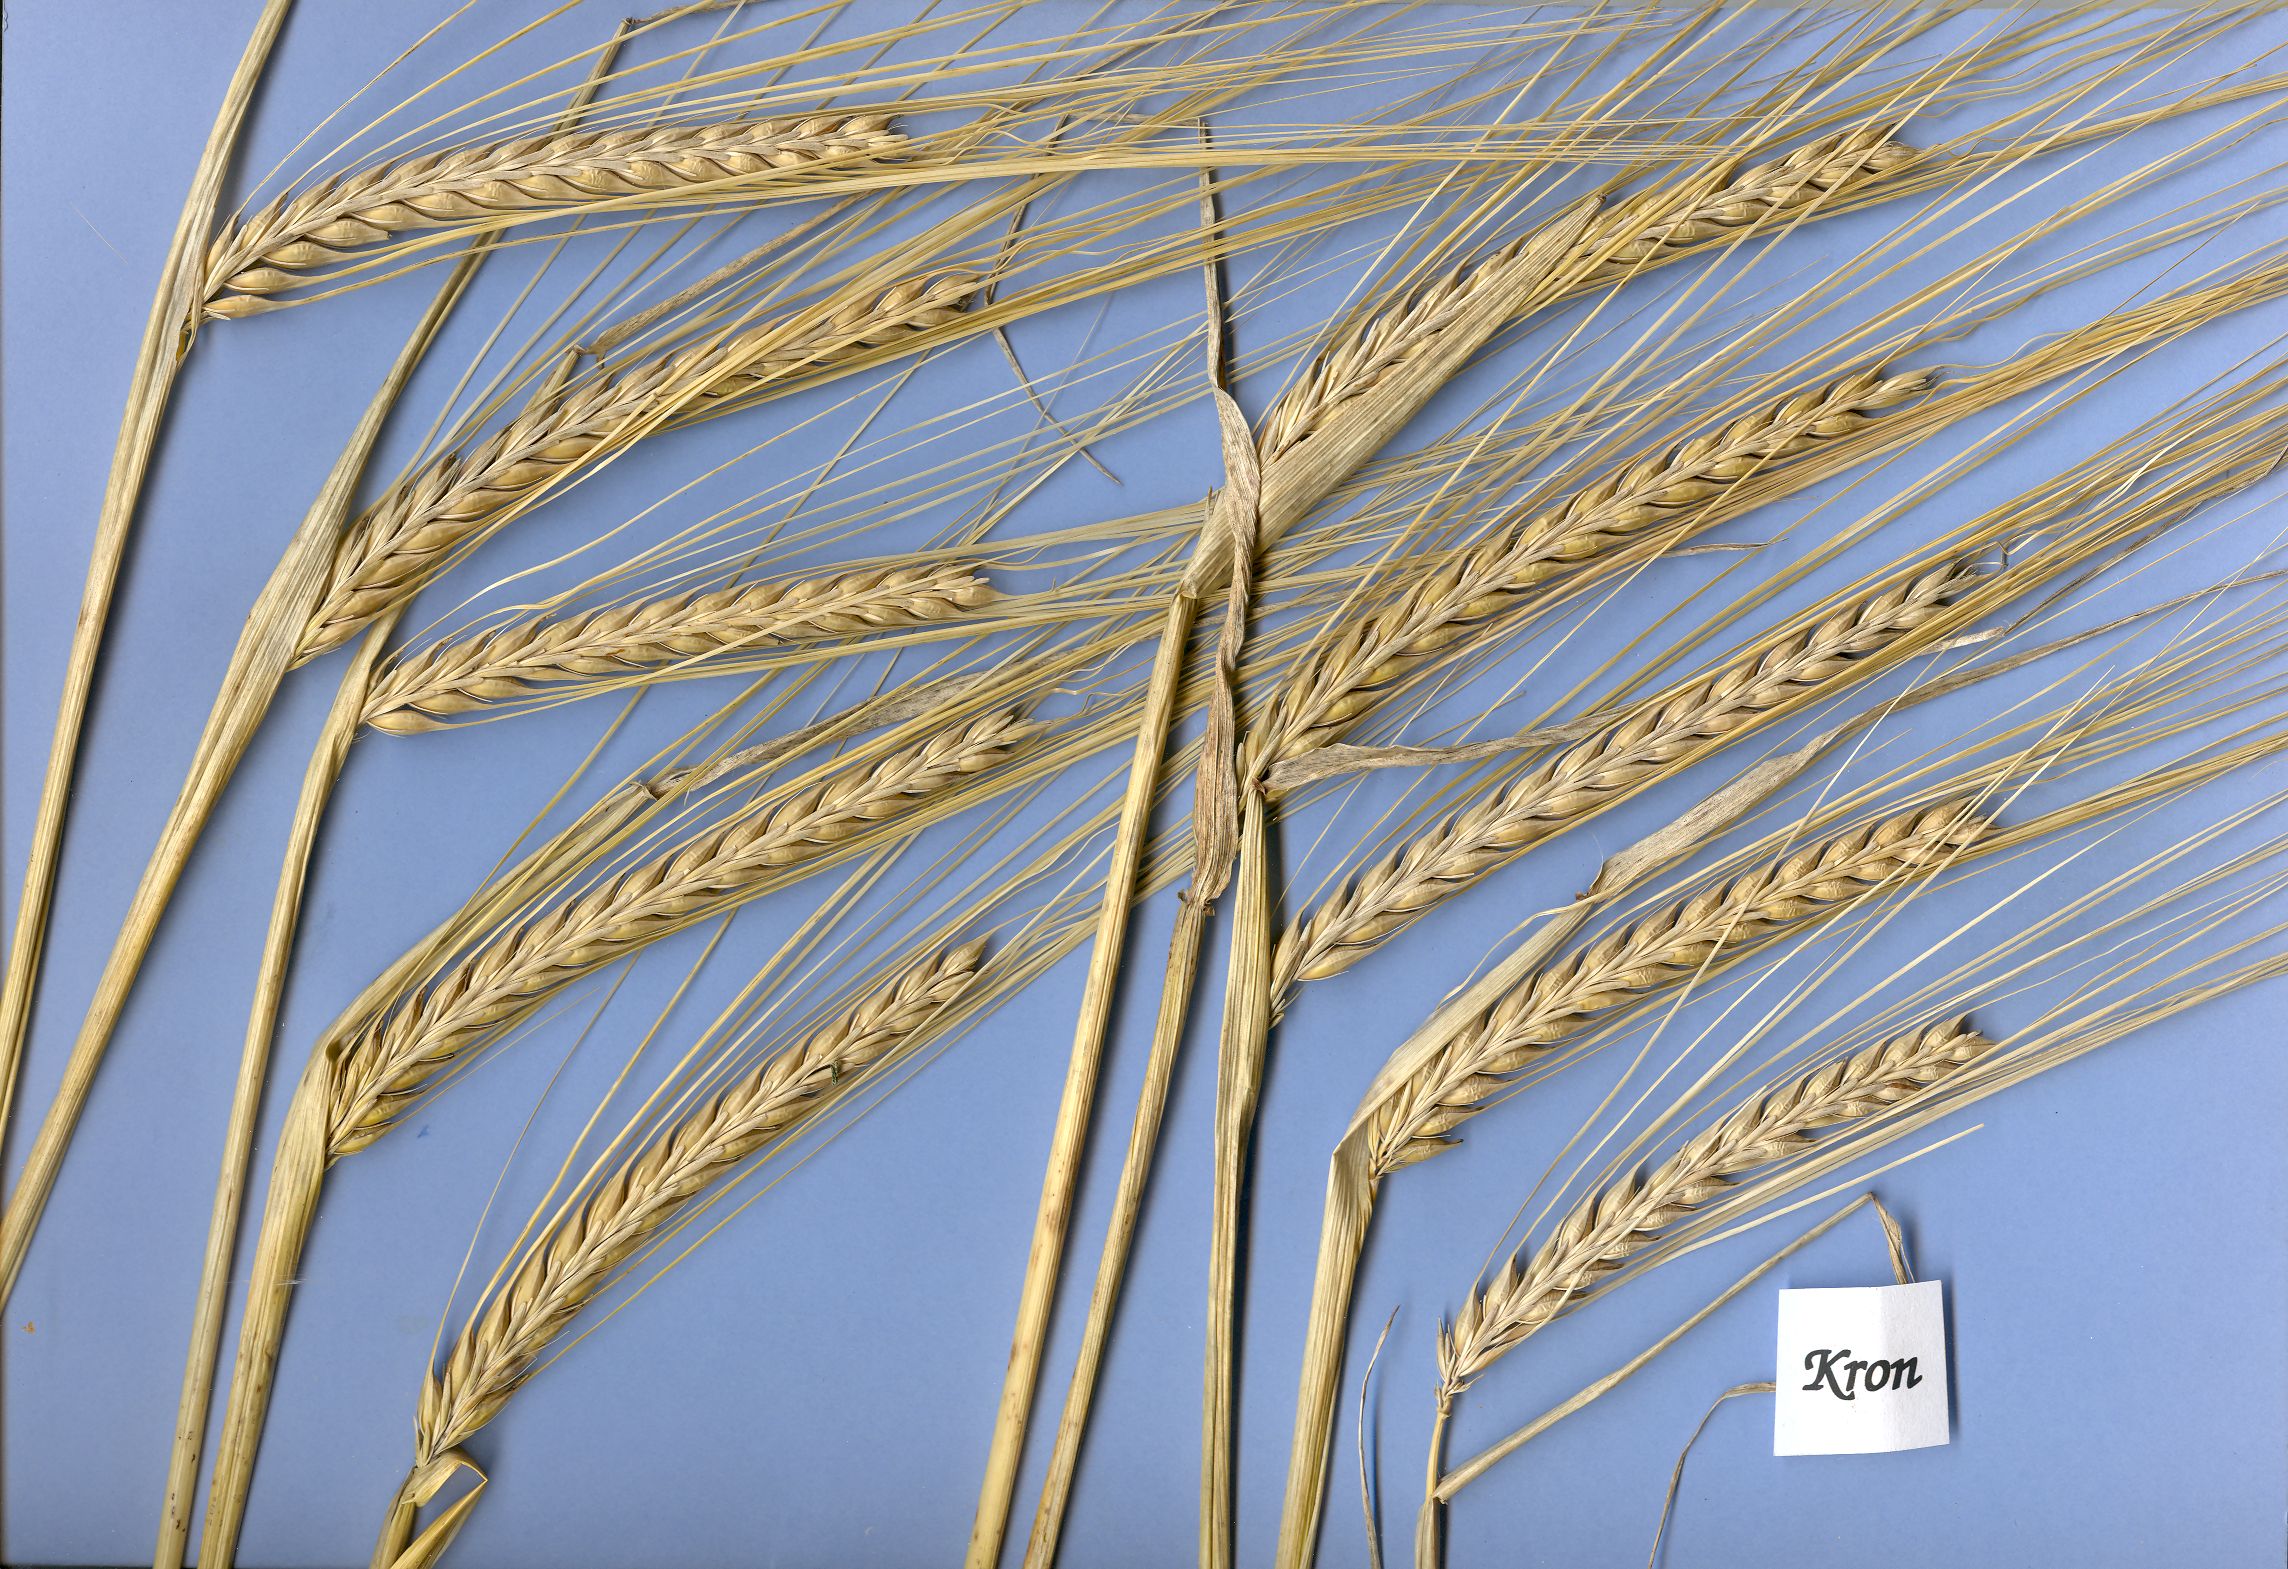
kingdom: Plantae
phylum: Tracheophyta
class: Liliopsida
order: Poales
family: Poaceae
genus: Hordeum
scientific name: Hordeum vulgare
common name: Common barley
